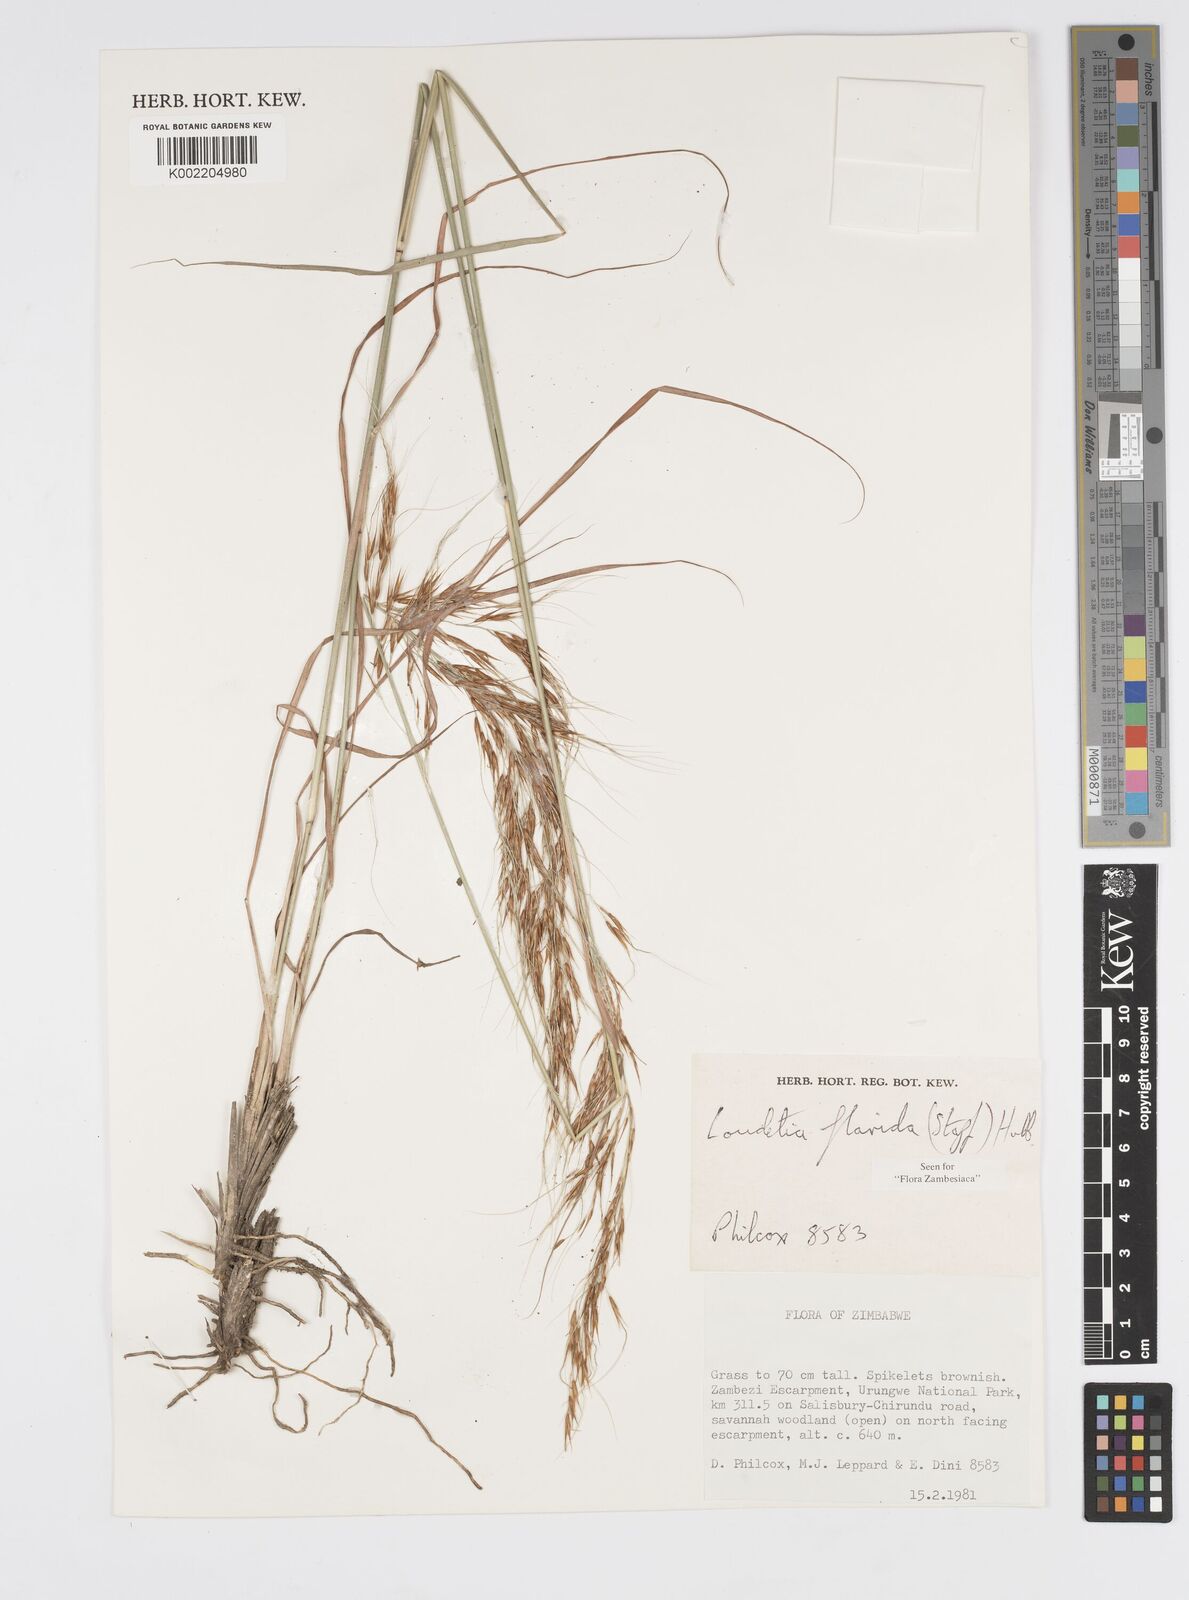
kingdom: Plantae
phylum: Tracheophyta
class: Liliopsida
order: Poales
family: Poaceae
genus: Loudetia
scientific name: Loudetia flavida
